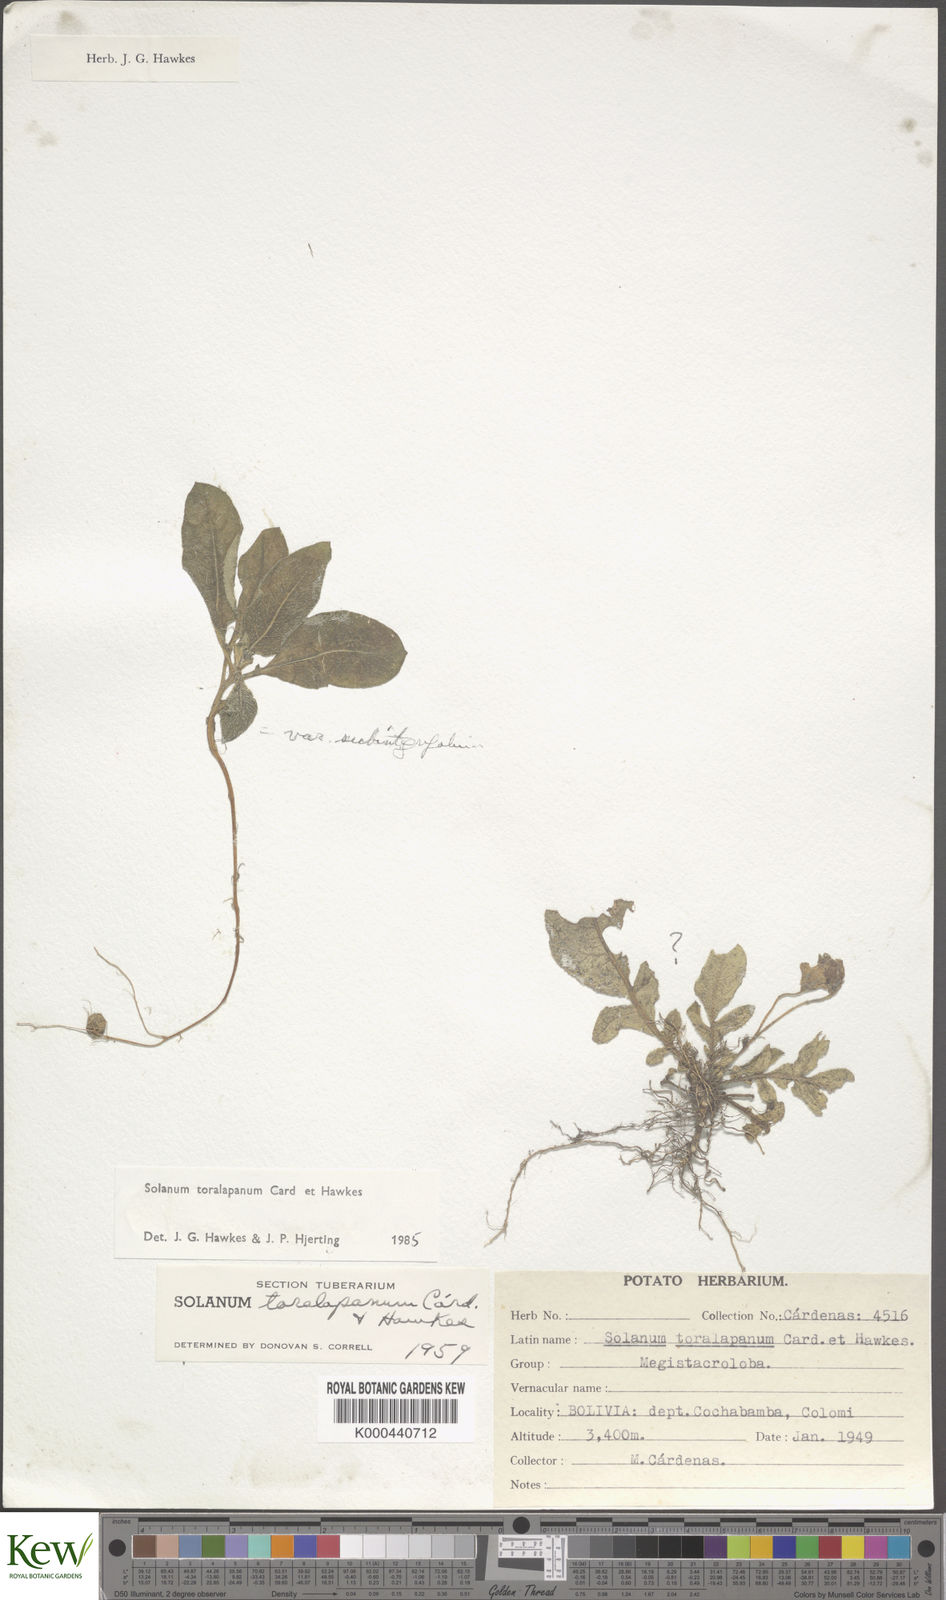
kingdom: Plantae
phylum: Tracheophyta
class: Magnoliopsida
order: Solanales
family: Solanaceae
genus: Solanum
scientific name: Solanum boliviense
